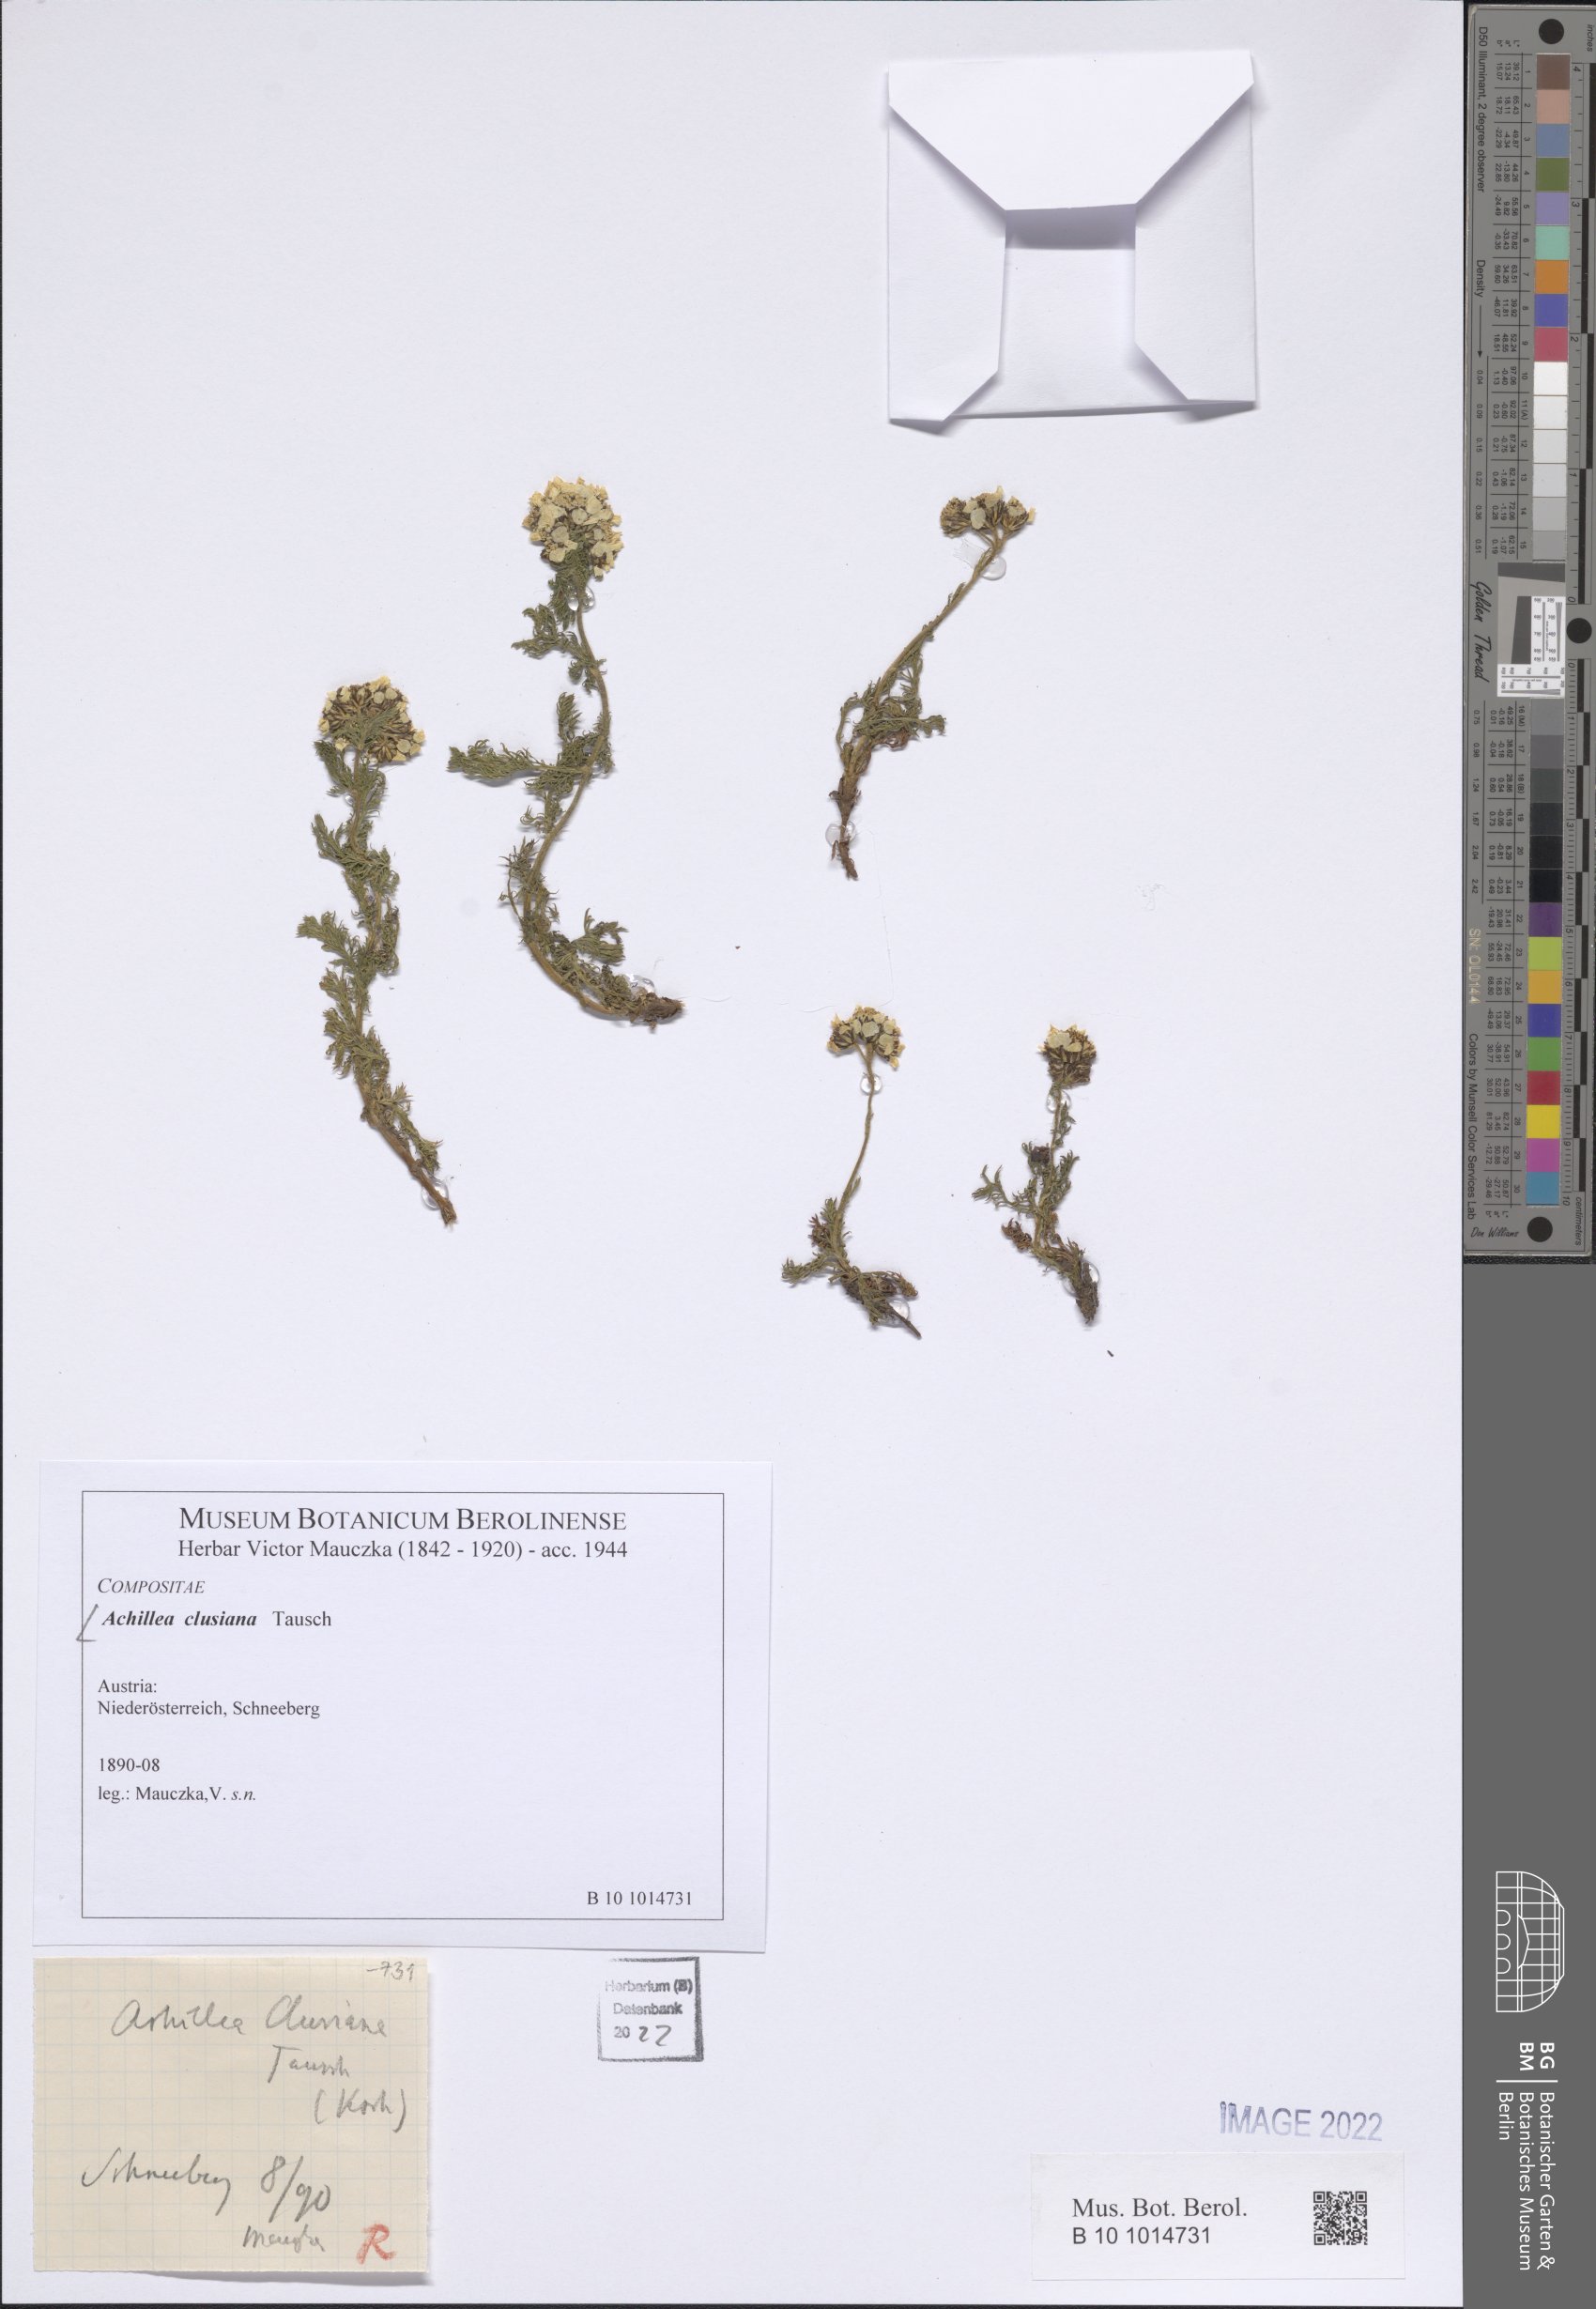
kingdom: Plantae
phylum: Tracheophyta
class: Magnoliopsida
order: Asterales
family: Asteraceae
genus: Achillea
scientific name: Achillea clusiana
